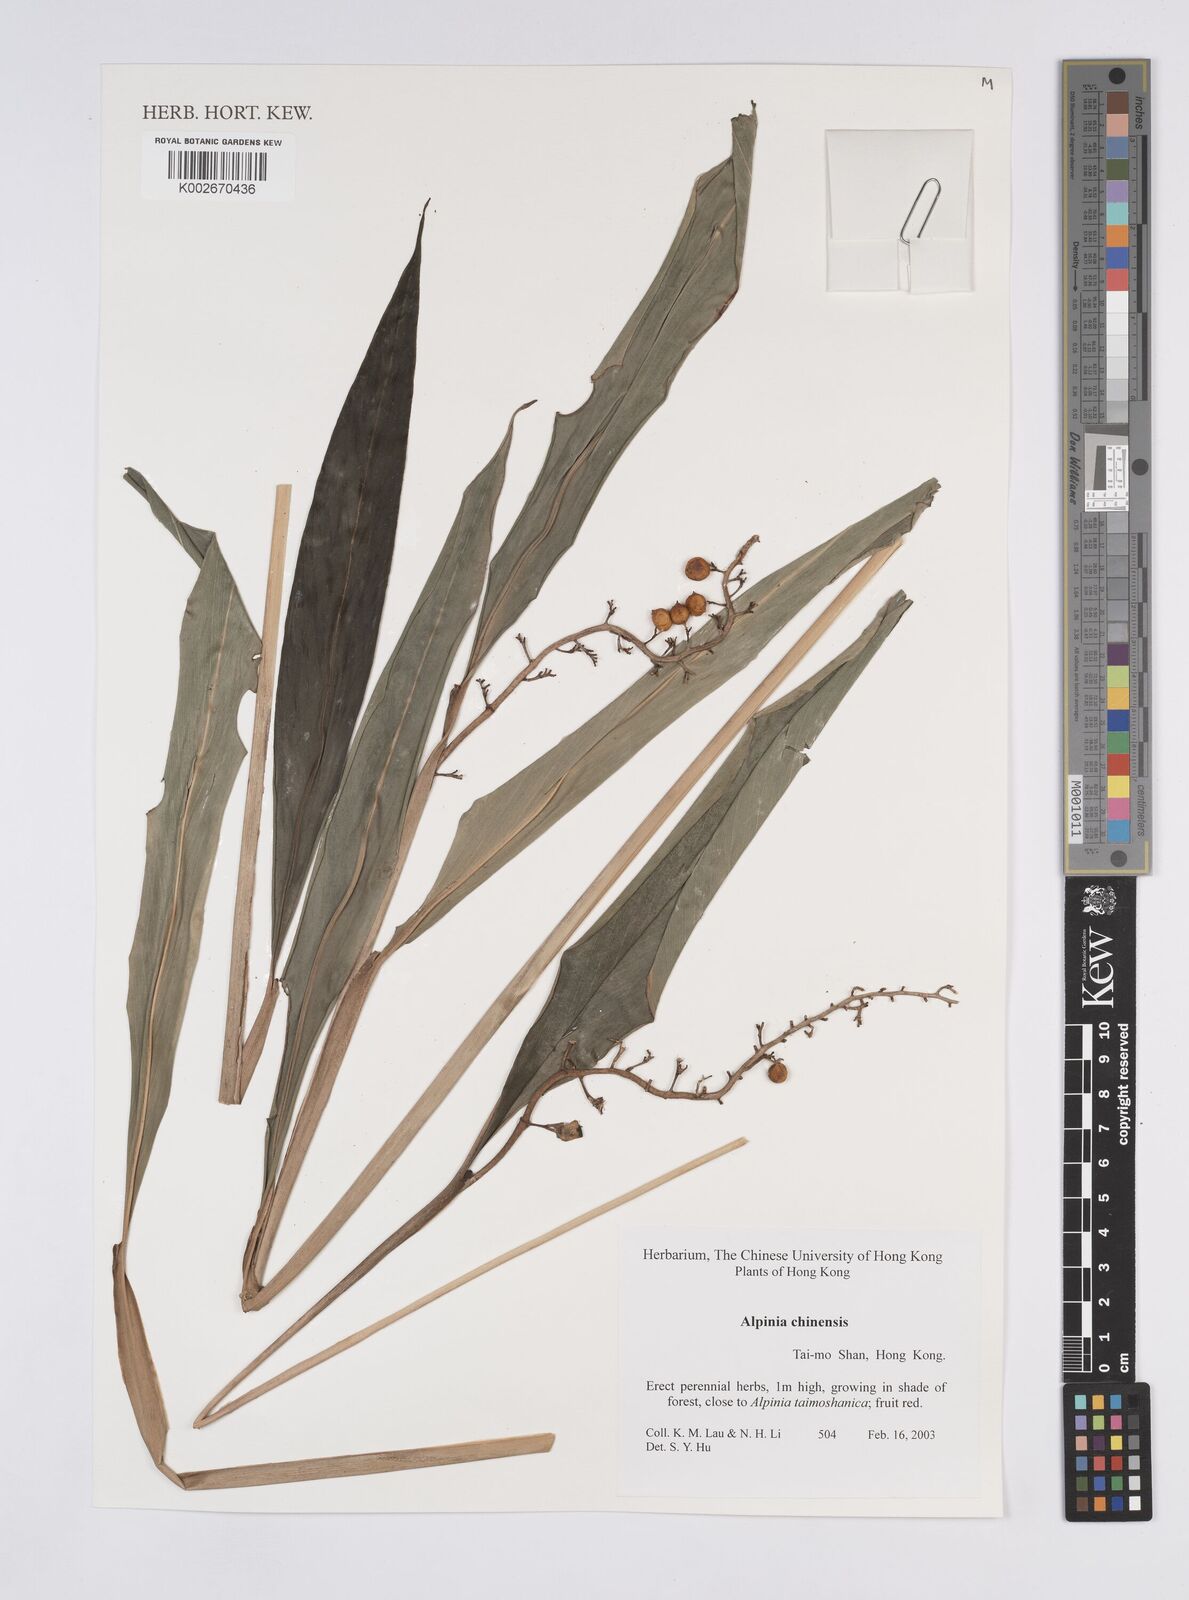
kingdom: Plantae
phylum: Tracheophyta
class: Liliopsida
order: Zingiberales
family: Zingiberaceae
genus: Alpinia
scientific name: Alpinia chinensis
